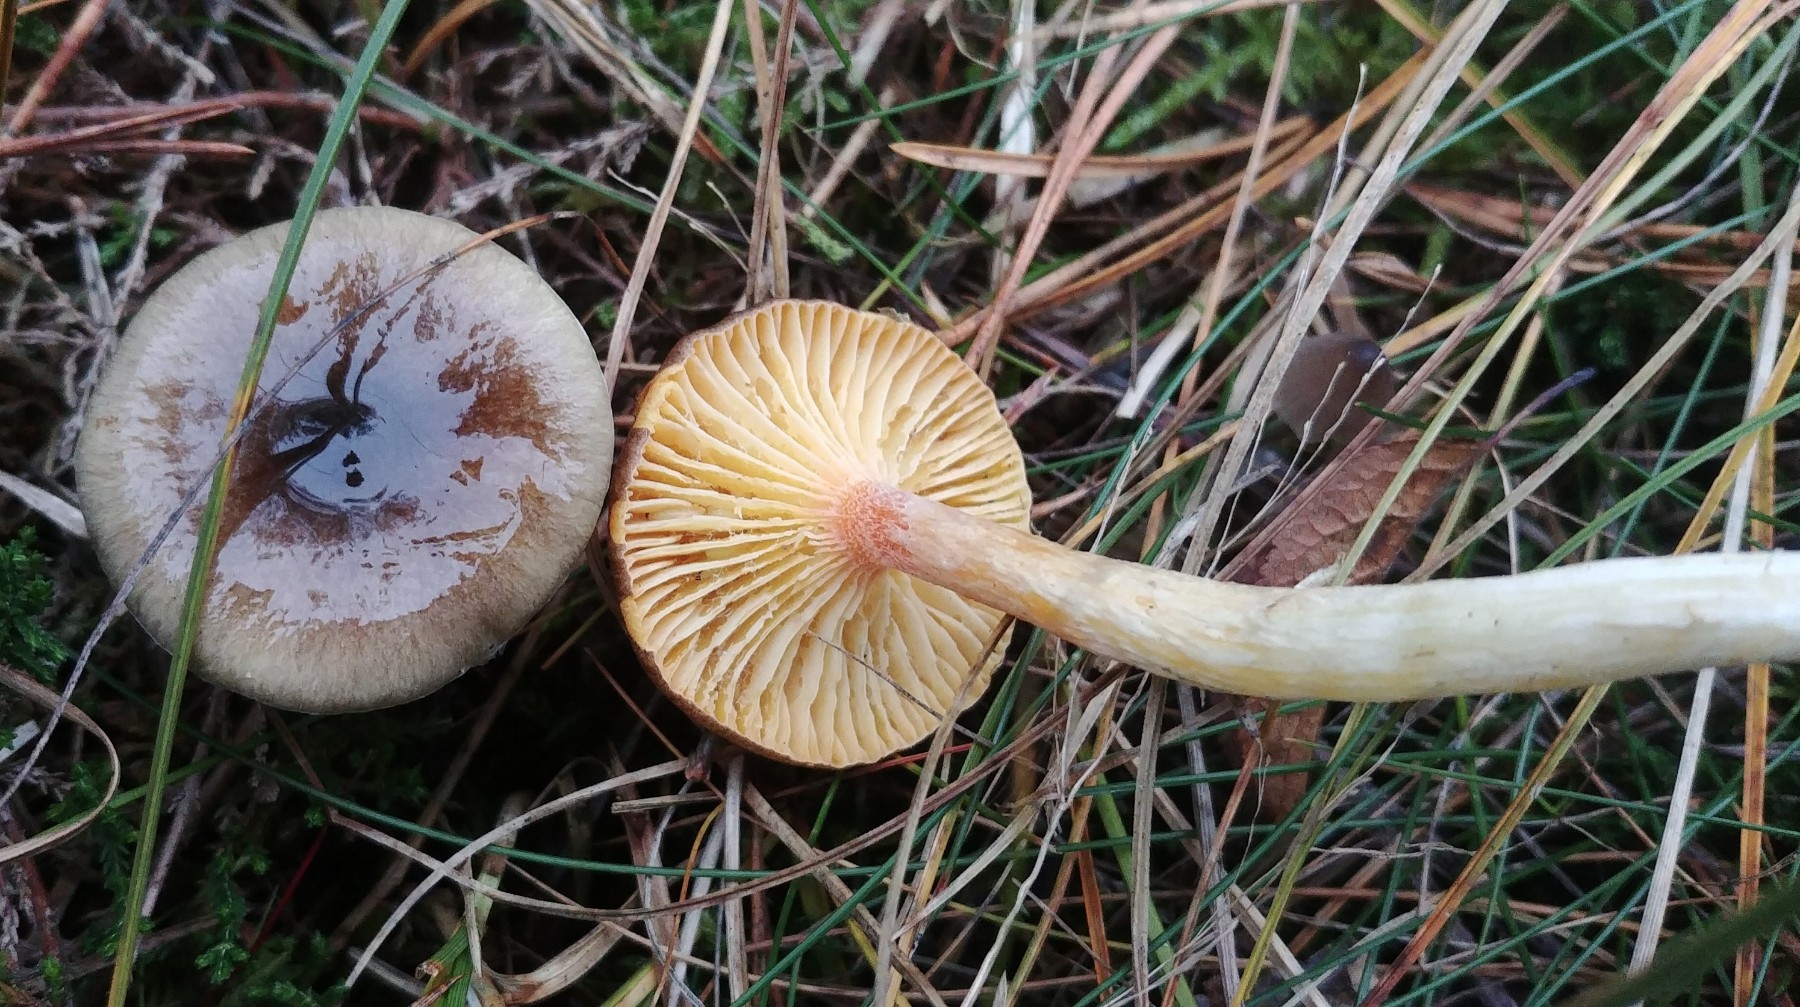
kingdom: Fungi
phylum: Basidiomycota
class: Agaricomycetes
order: Agaricales
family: Hygrophoraceae
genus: Hygrophorus
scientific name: Hygrophorus hypothejus
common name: frost-sneglehat
